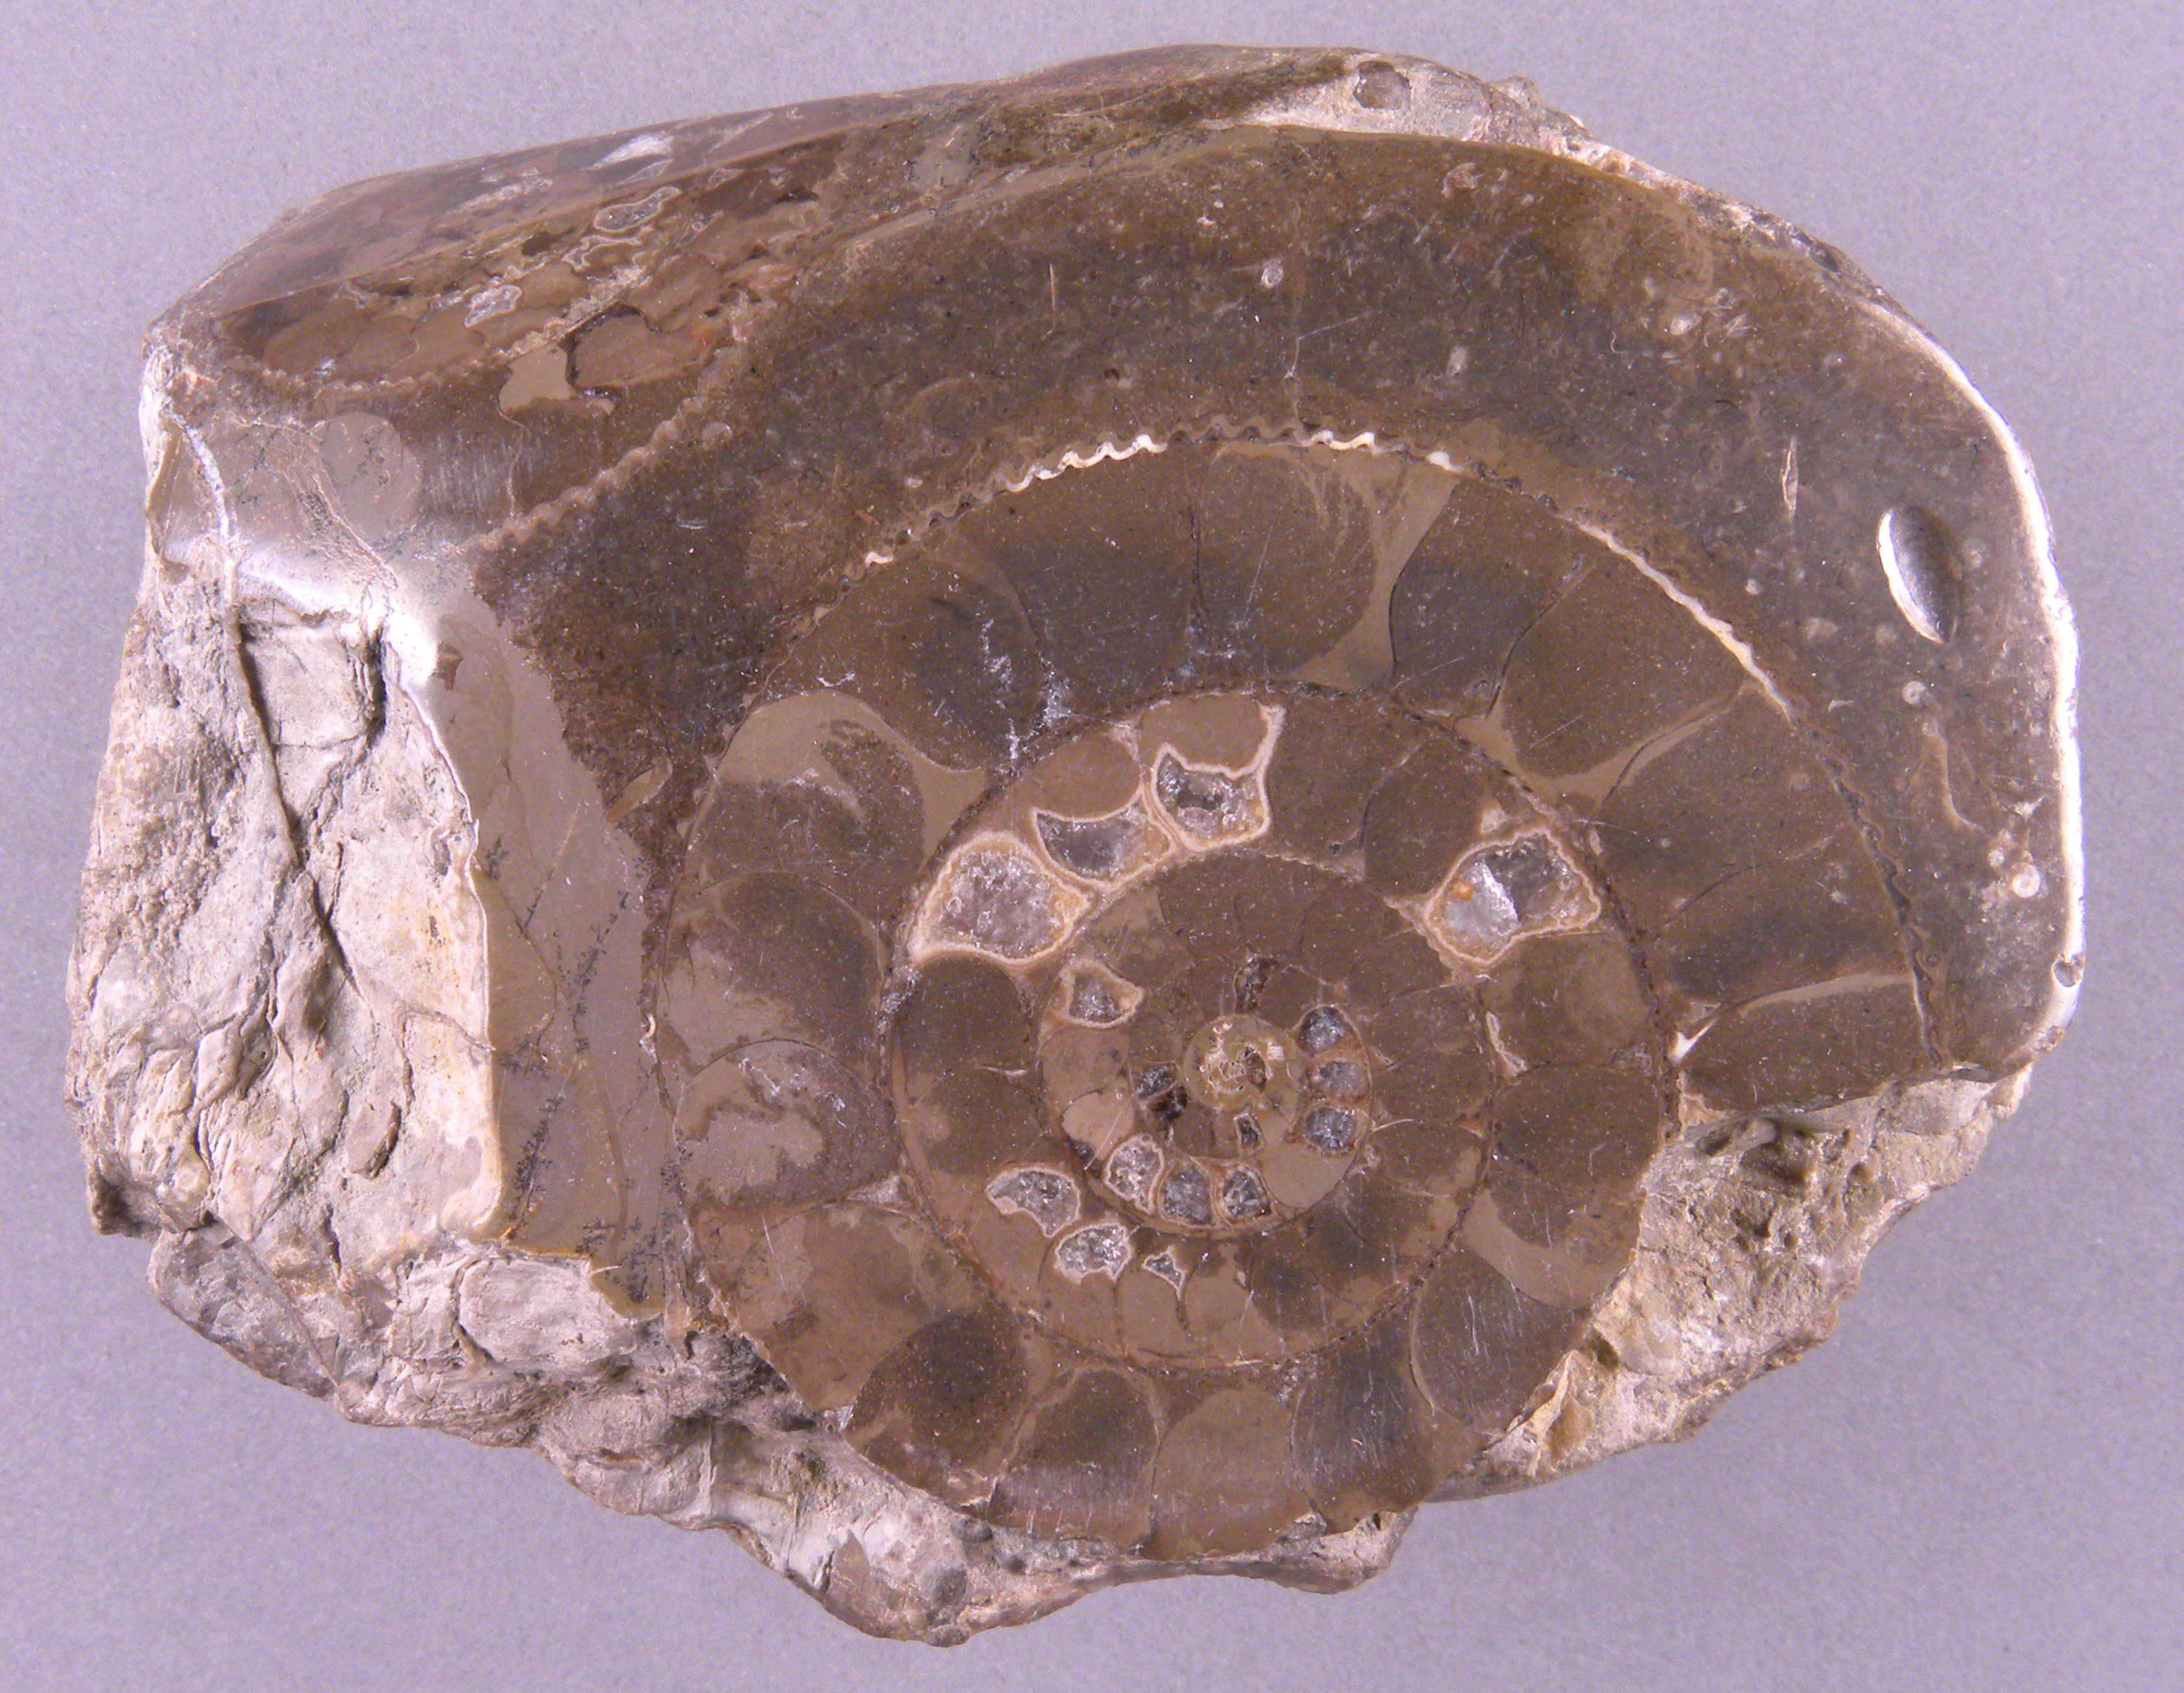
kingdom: Animalia
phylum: Mollusca
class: Cephalopoda
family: Dactylioceratidae
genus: Dactylioceras
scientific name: Dactylioceras
